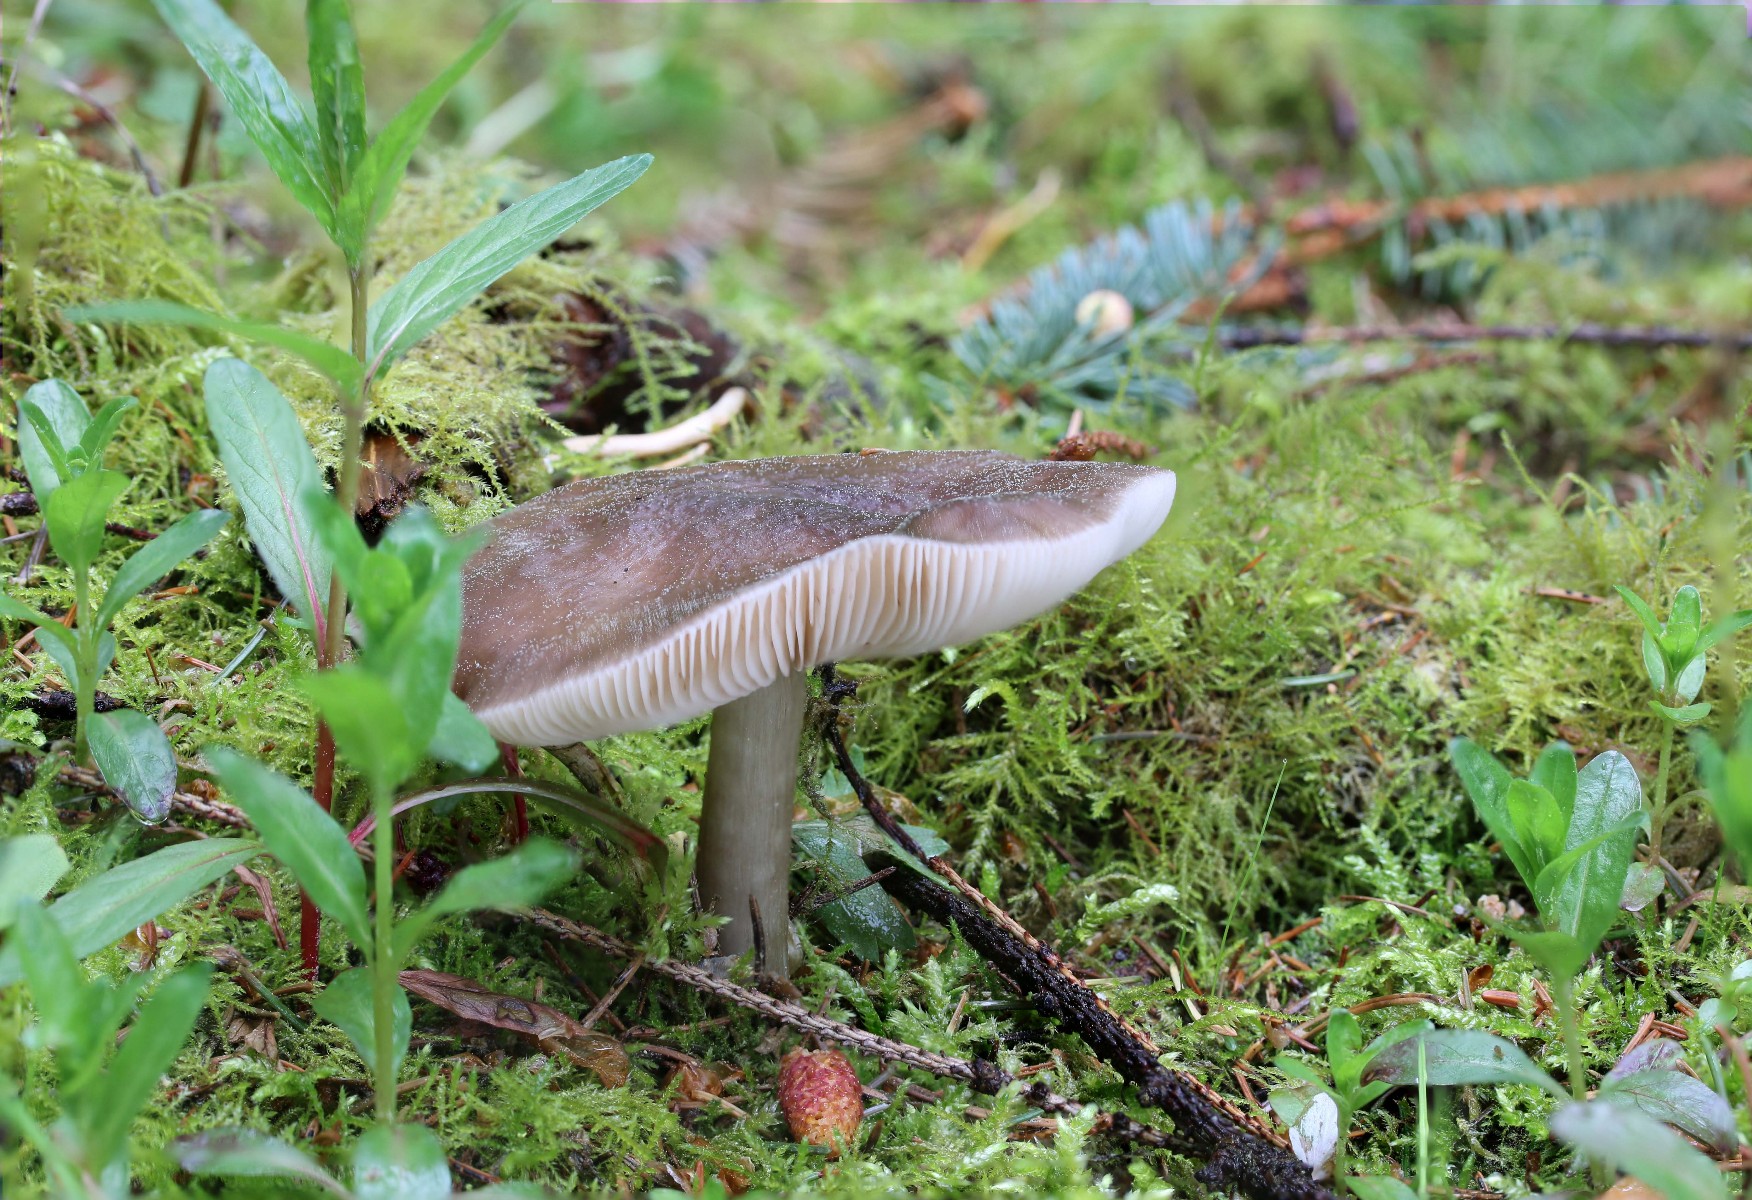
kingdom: Fungi
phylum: Basidiomycota
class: Agaricomycetes
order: Agaricales
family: Pluteaceae
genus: Pluteus
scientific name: Pluteus primus
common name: tidlig skærmhat
